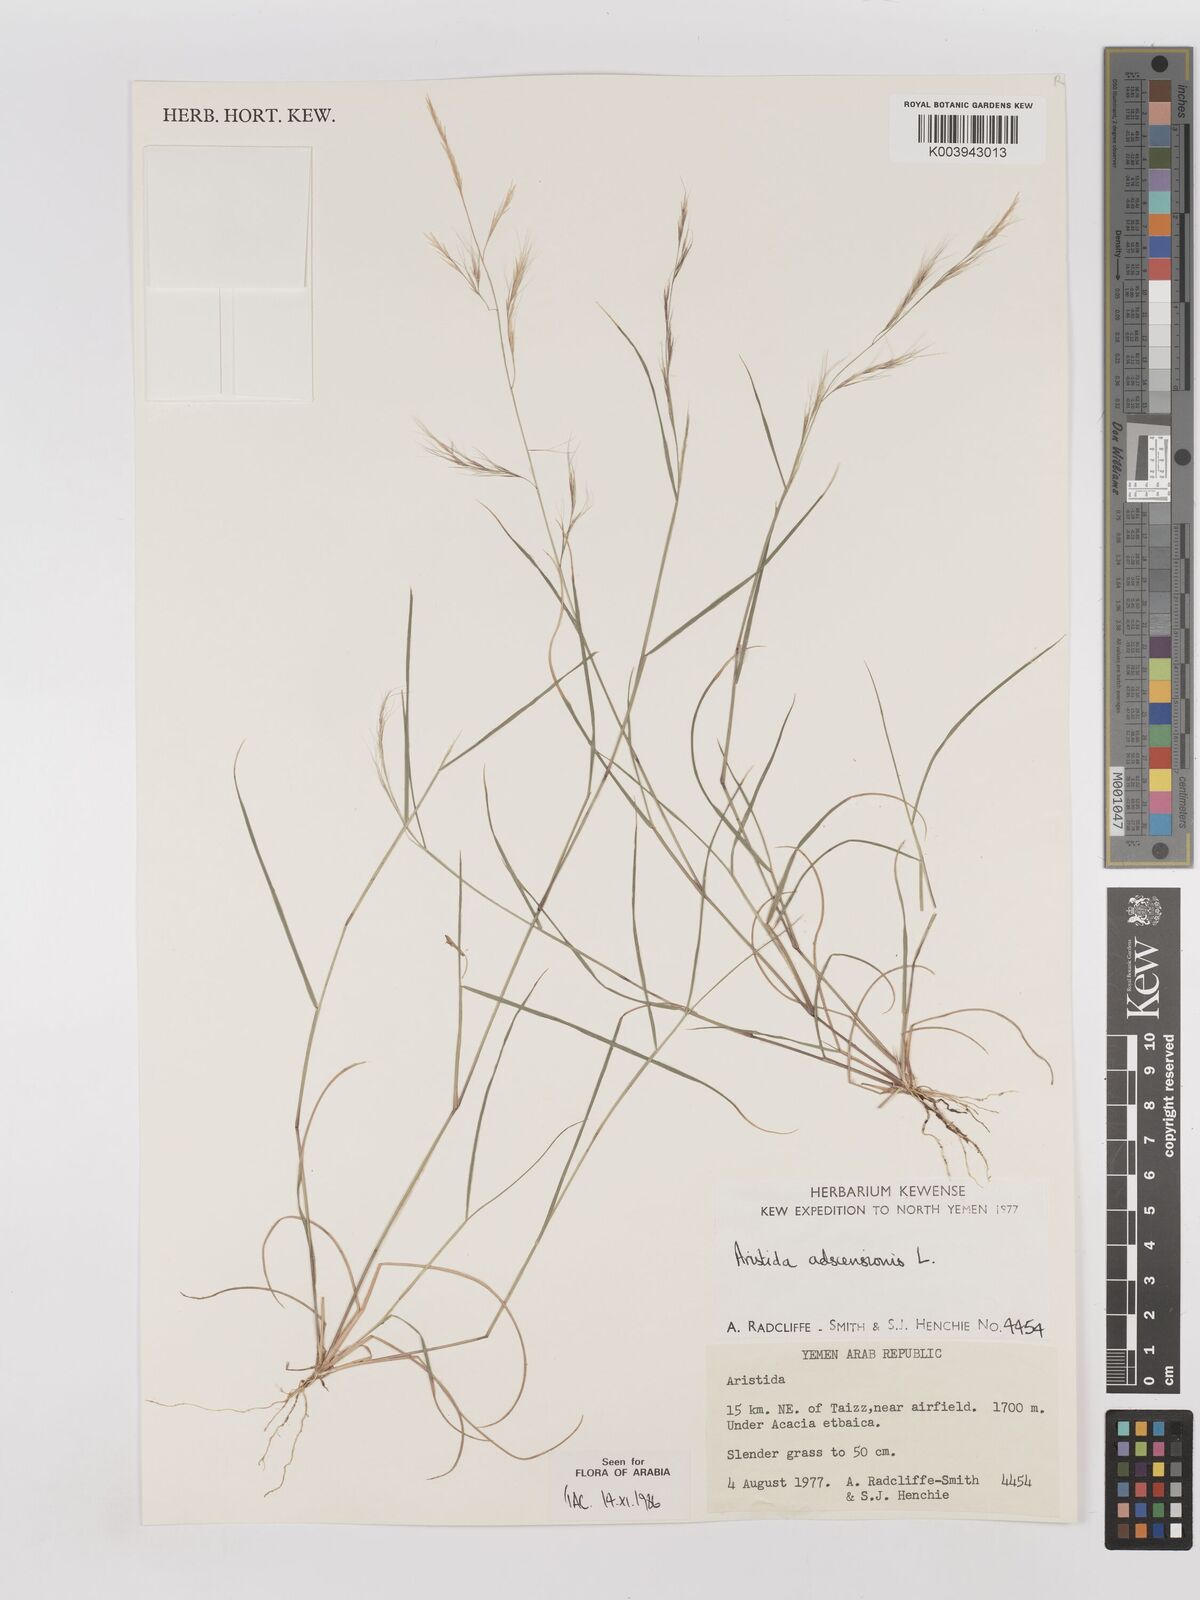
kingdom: Plantae
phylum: Tracheophyta
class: Liliopsida
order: Poales
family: Poaceae
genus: Aristida
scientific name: Aristida adscensionis
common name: Sixweeks threeawn
